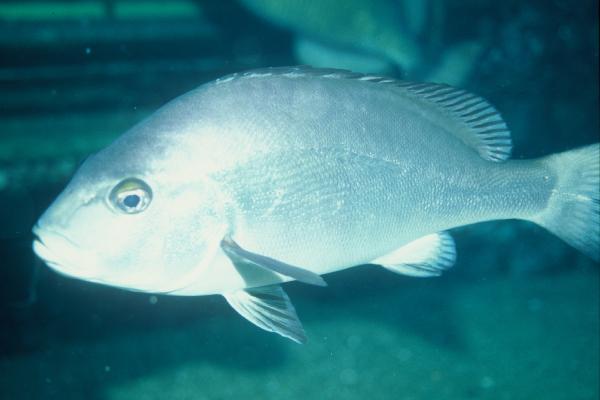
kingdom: Animalia
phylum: Chordata
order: Perciformes
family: Sparidae
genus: Cymatoceps
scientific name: Cymatoceps nasutus
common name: Black musselcracker
